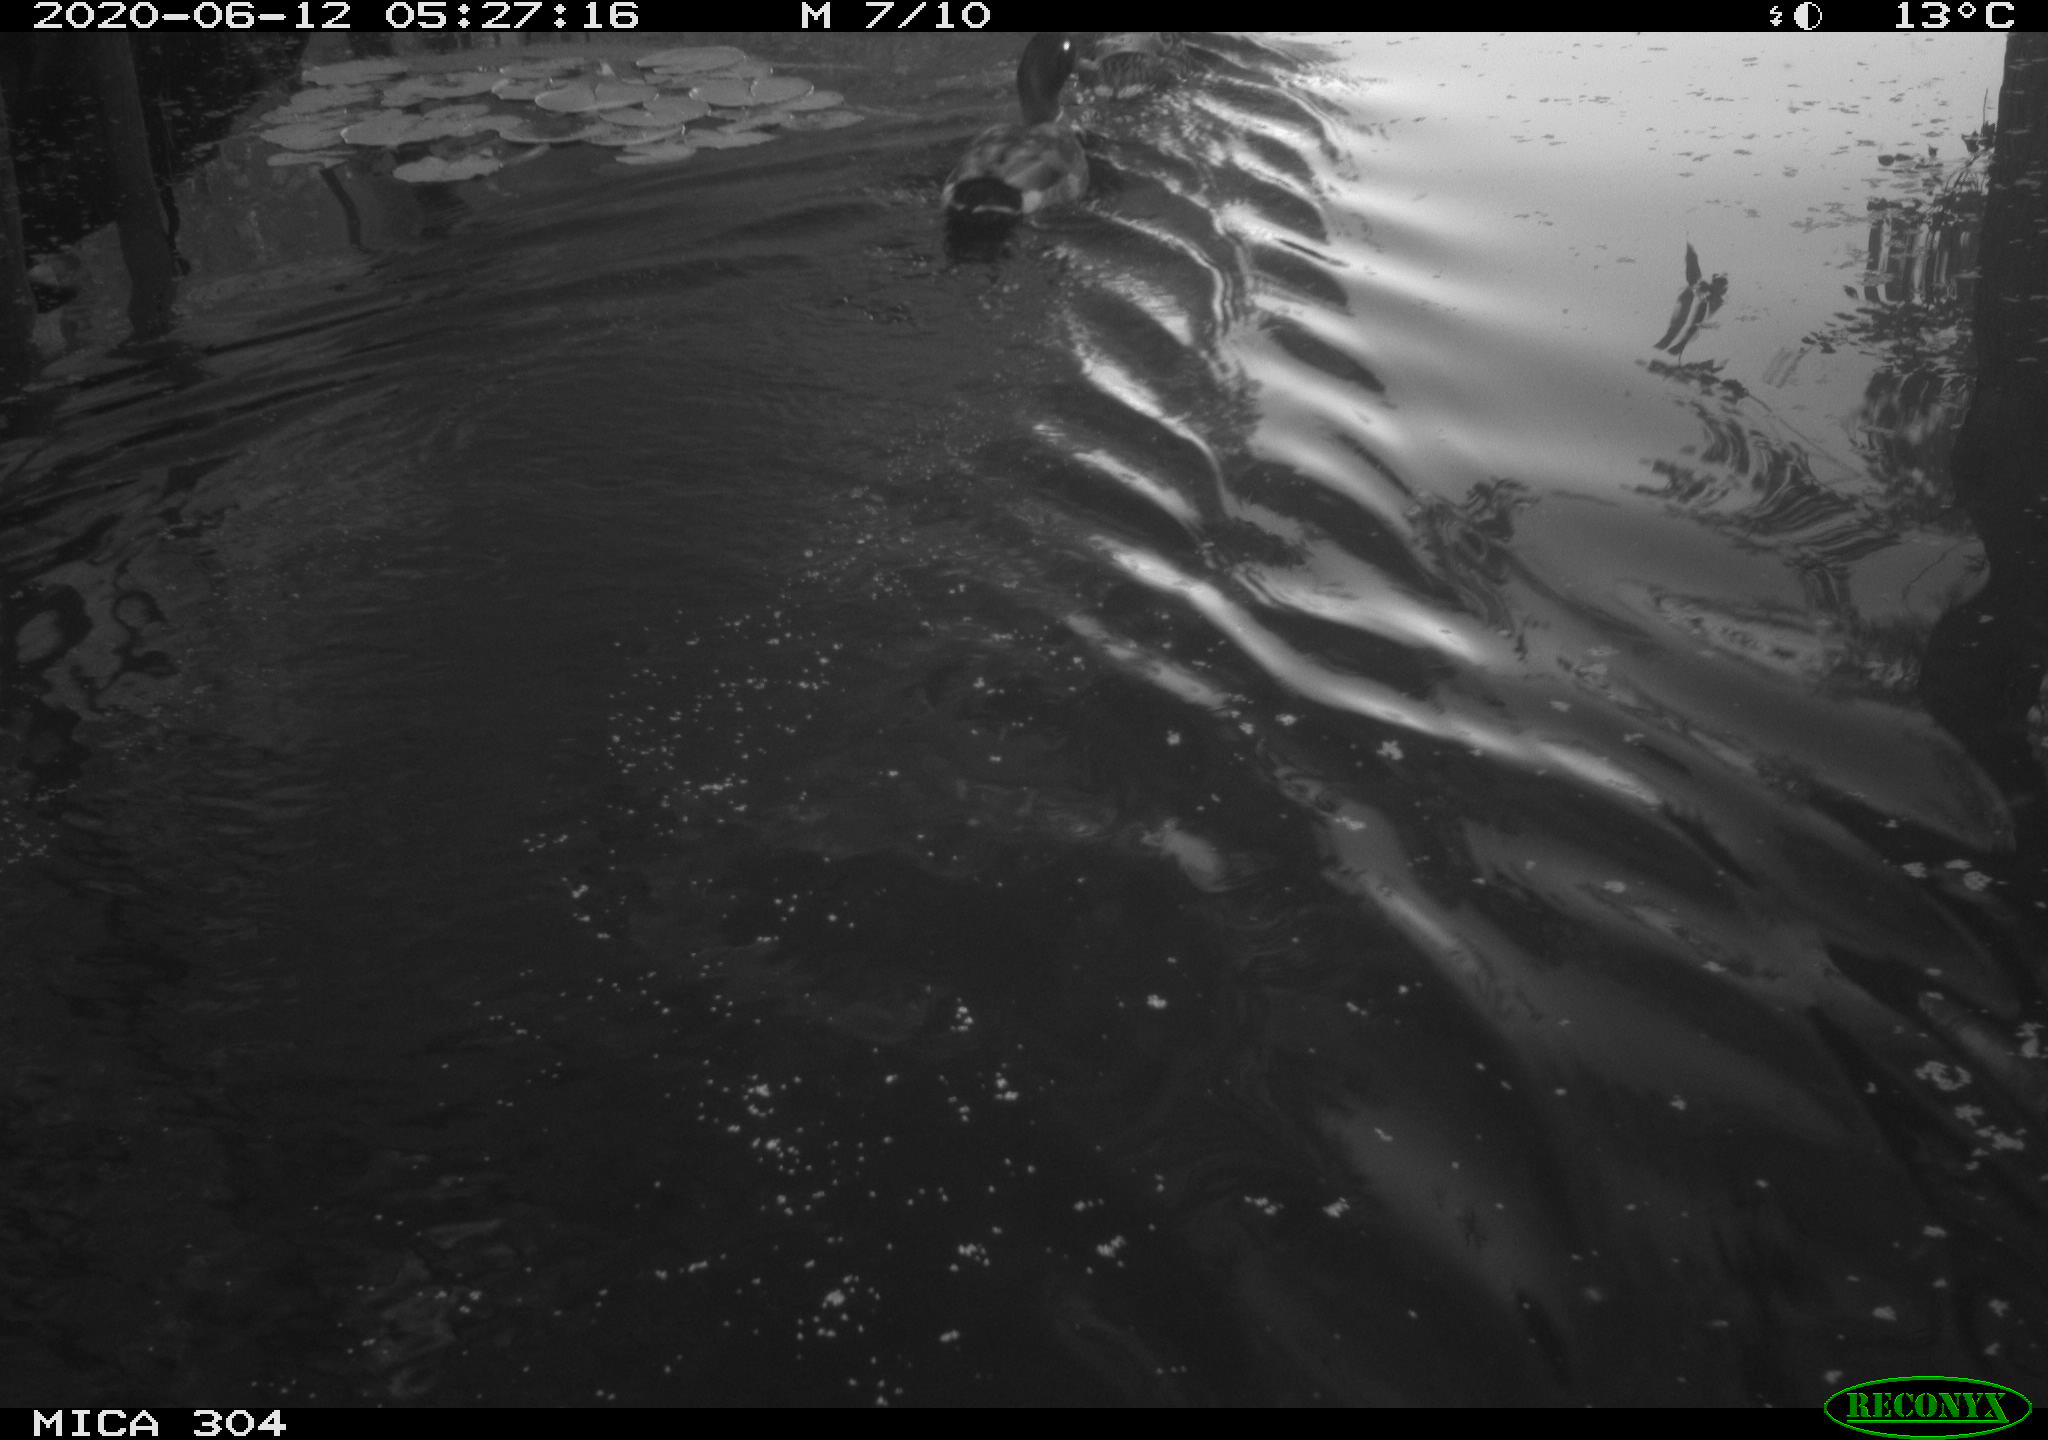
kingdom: Animalia
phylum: Chordata
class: Aves
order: Anseriformes
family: Anatidae
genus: Anas
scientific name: Anas platyrhynchos
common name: Mallard
